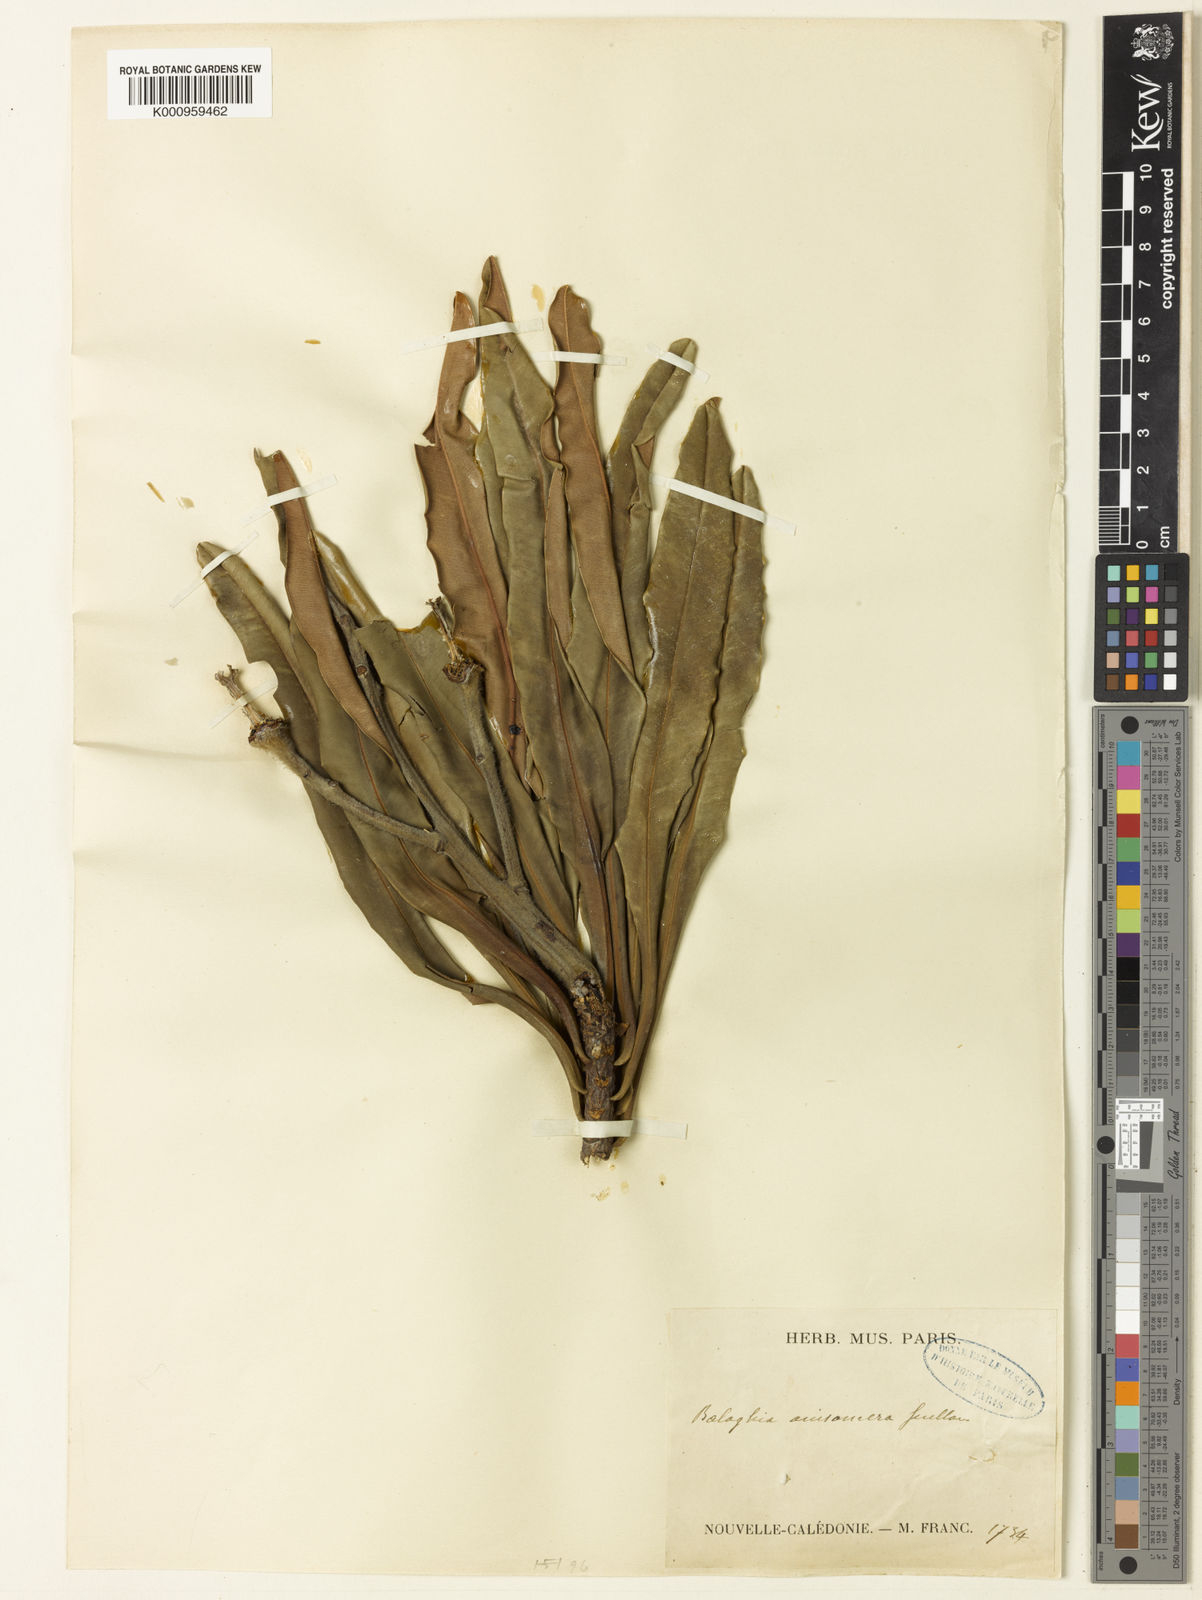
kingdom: Plantae
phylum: Tracheophyta
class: Magnoliopsida
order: Malpighiales
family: Euphorbiaceae
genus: Baloghia
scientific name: Baloghia anisomera
